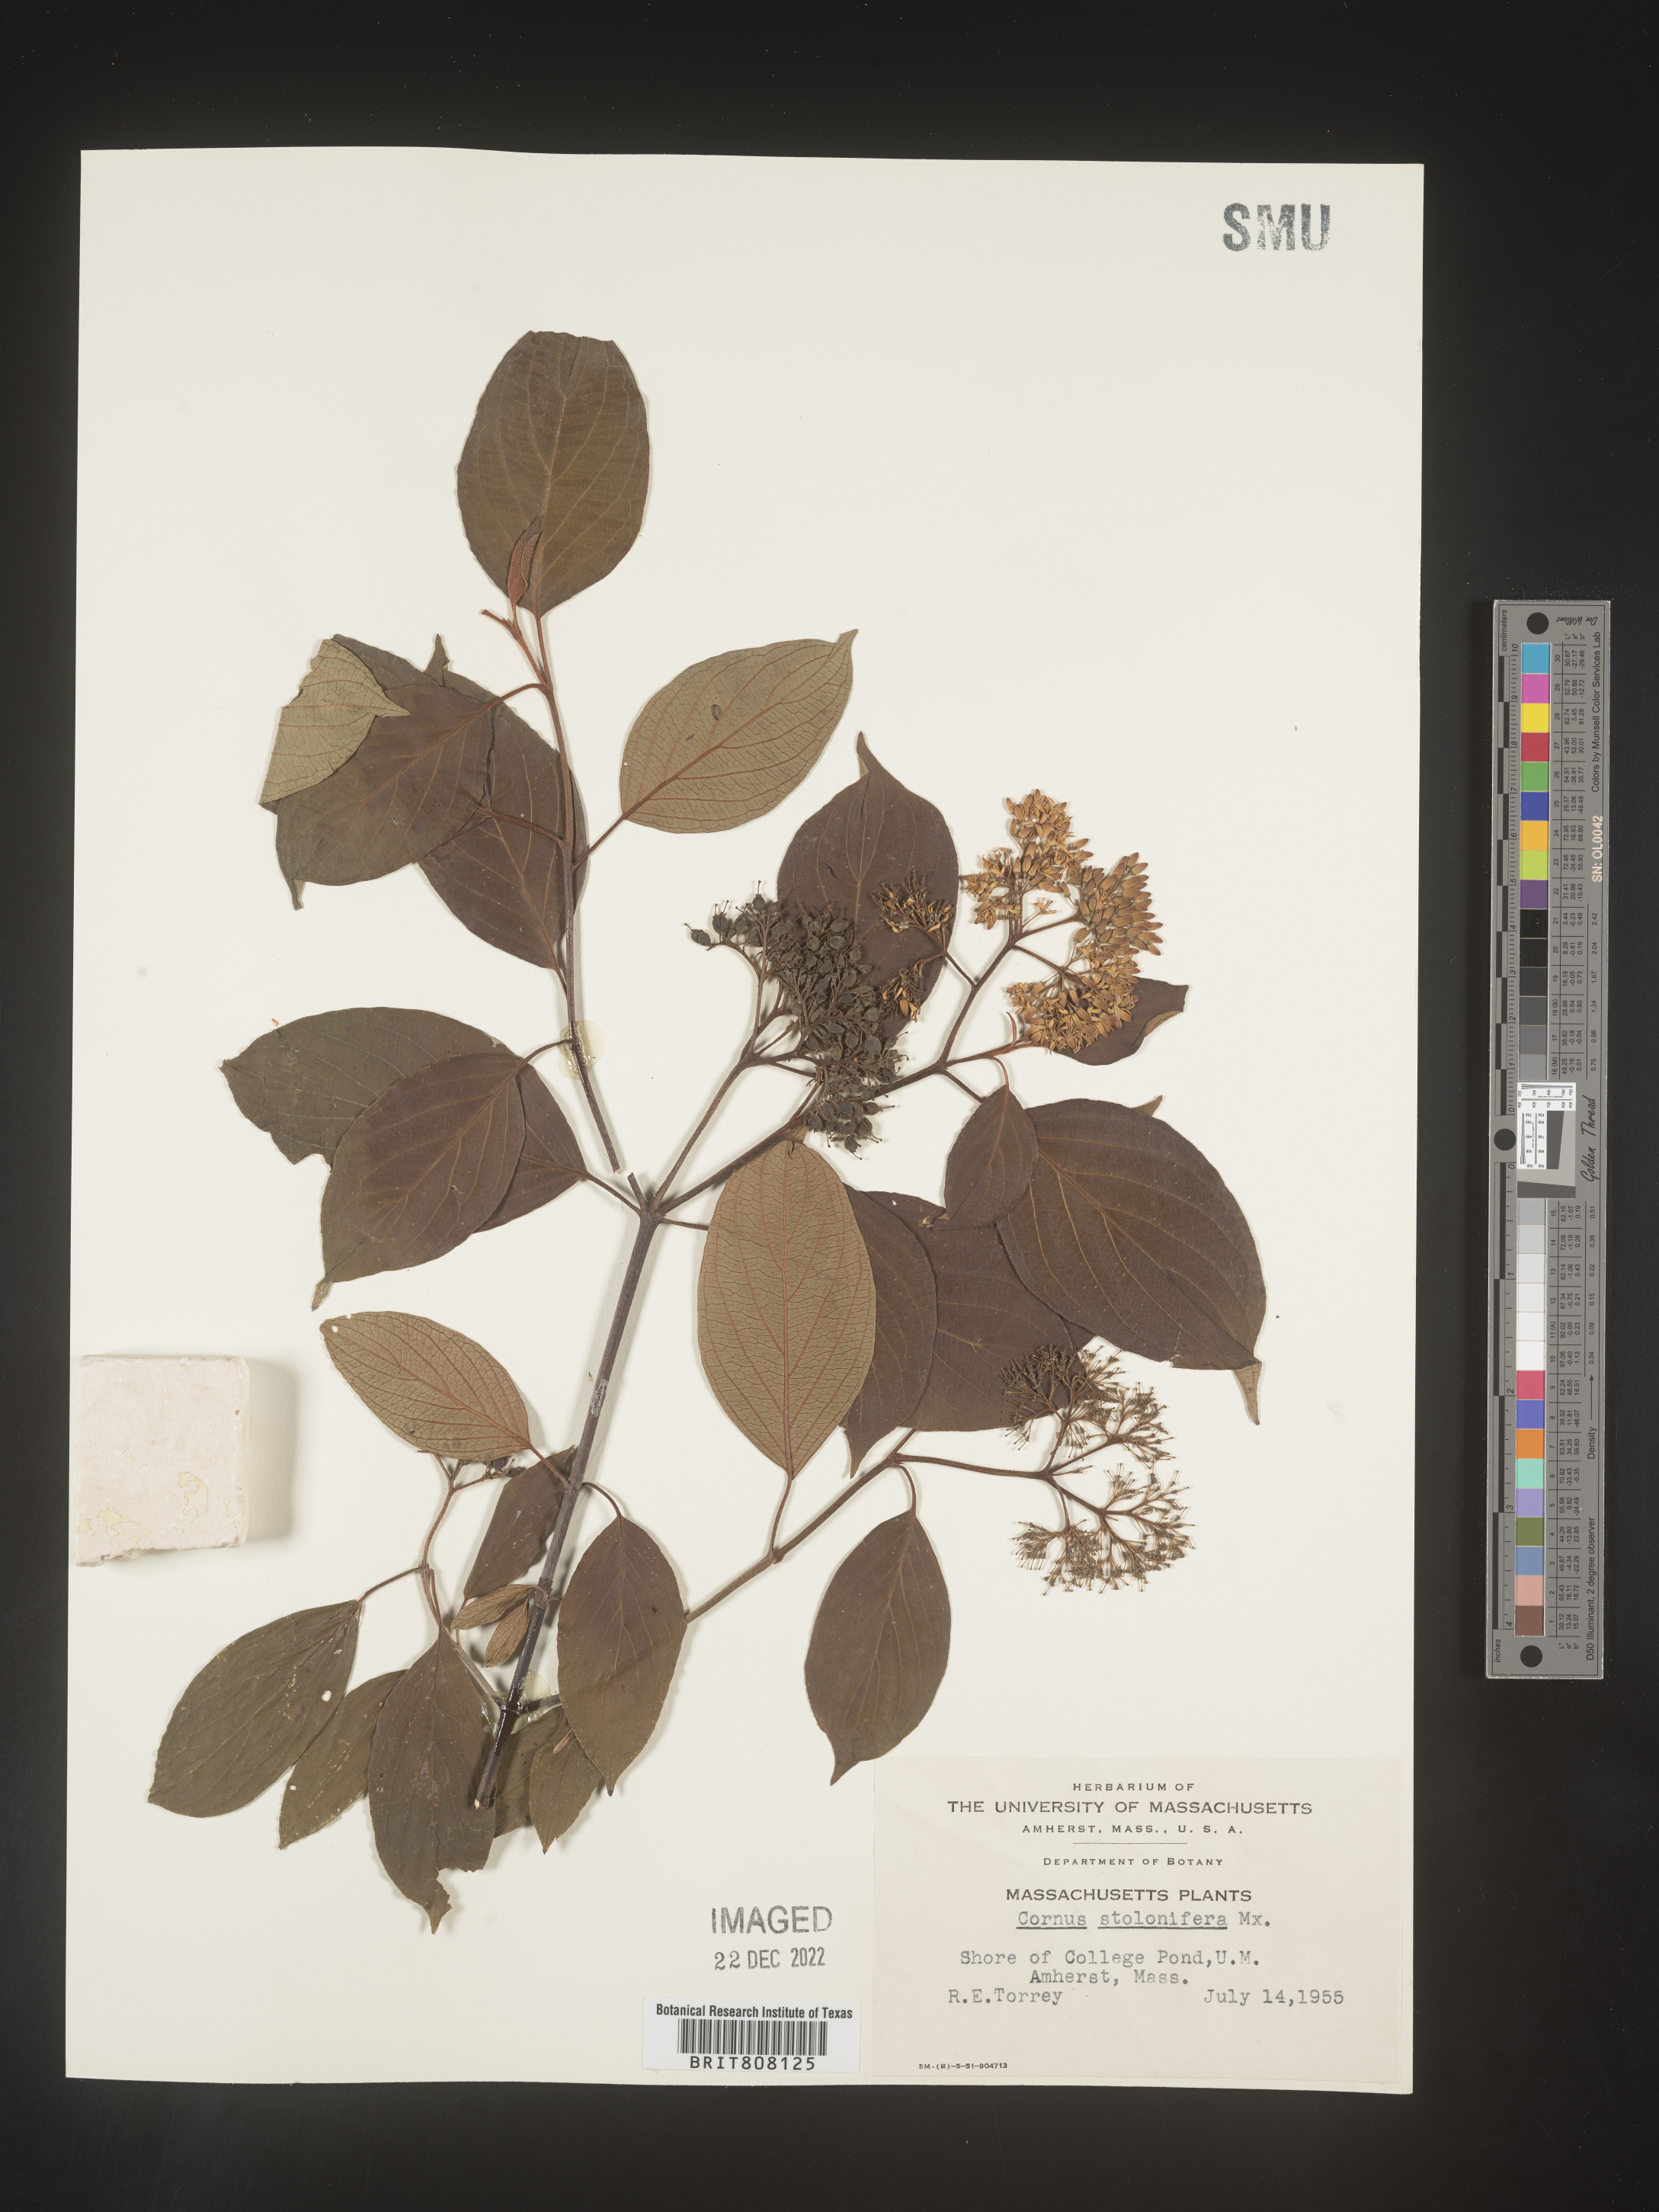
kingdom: Plantae
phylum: Tracheophyta
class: Magnoliopsida
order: Cornales
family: Cornaceae
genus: Cornus
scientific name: Cornus sericea
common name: Red-osier dogwood
